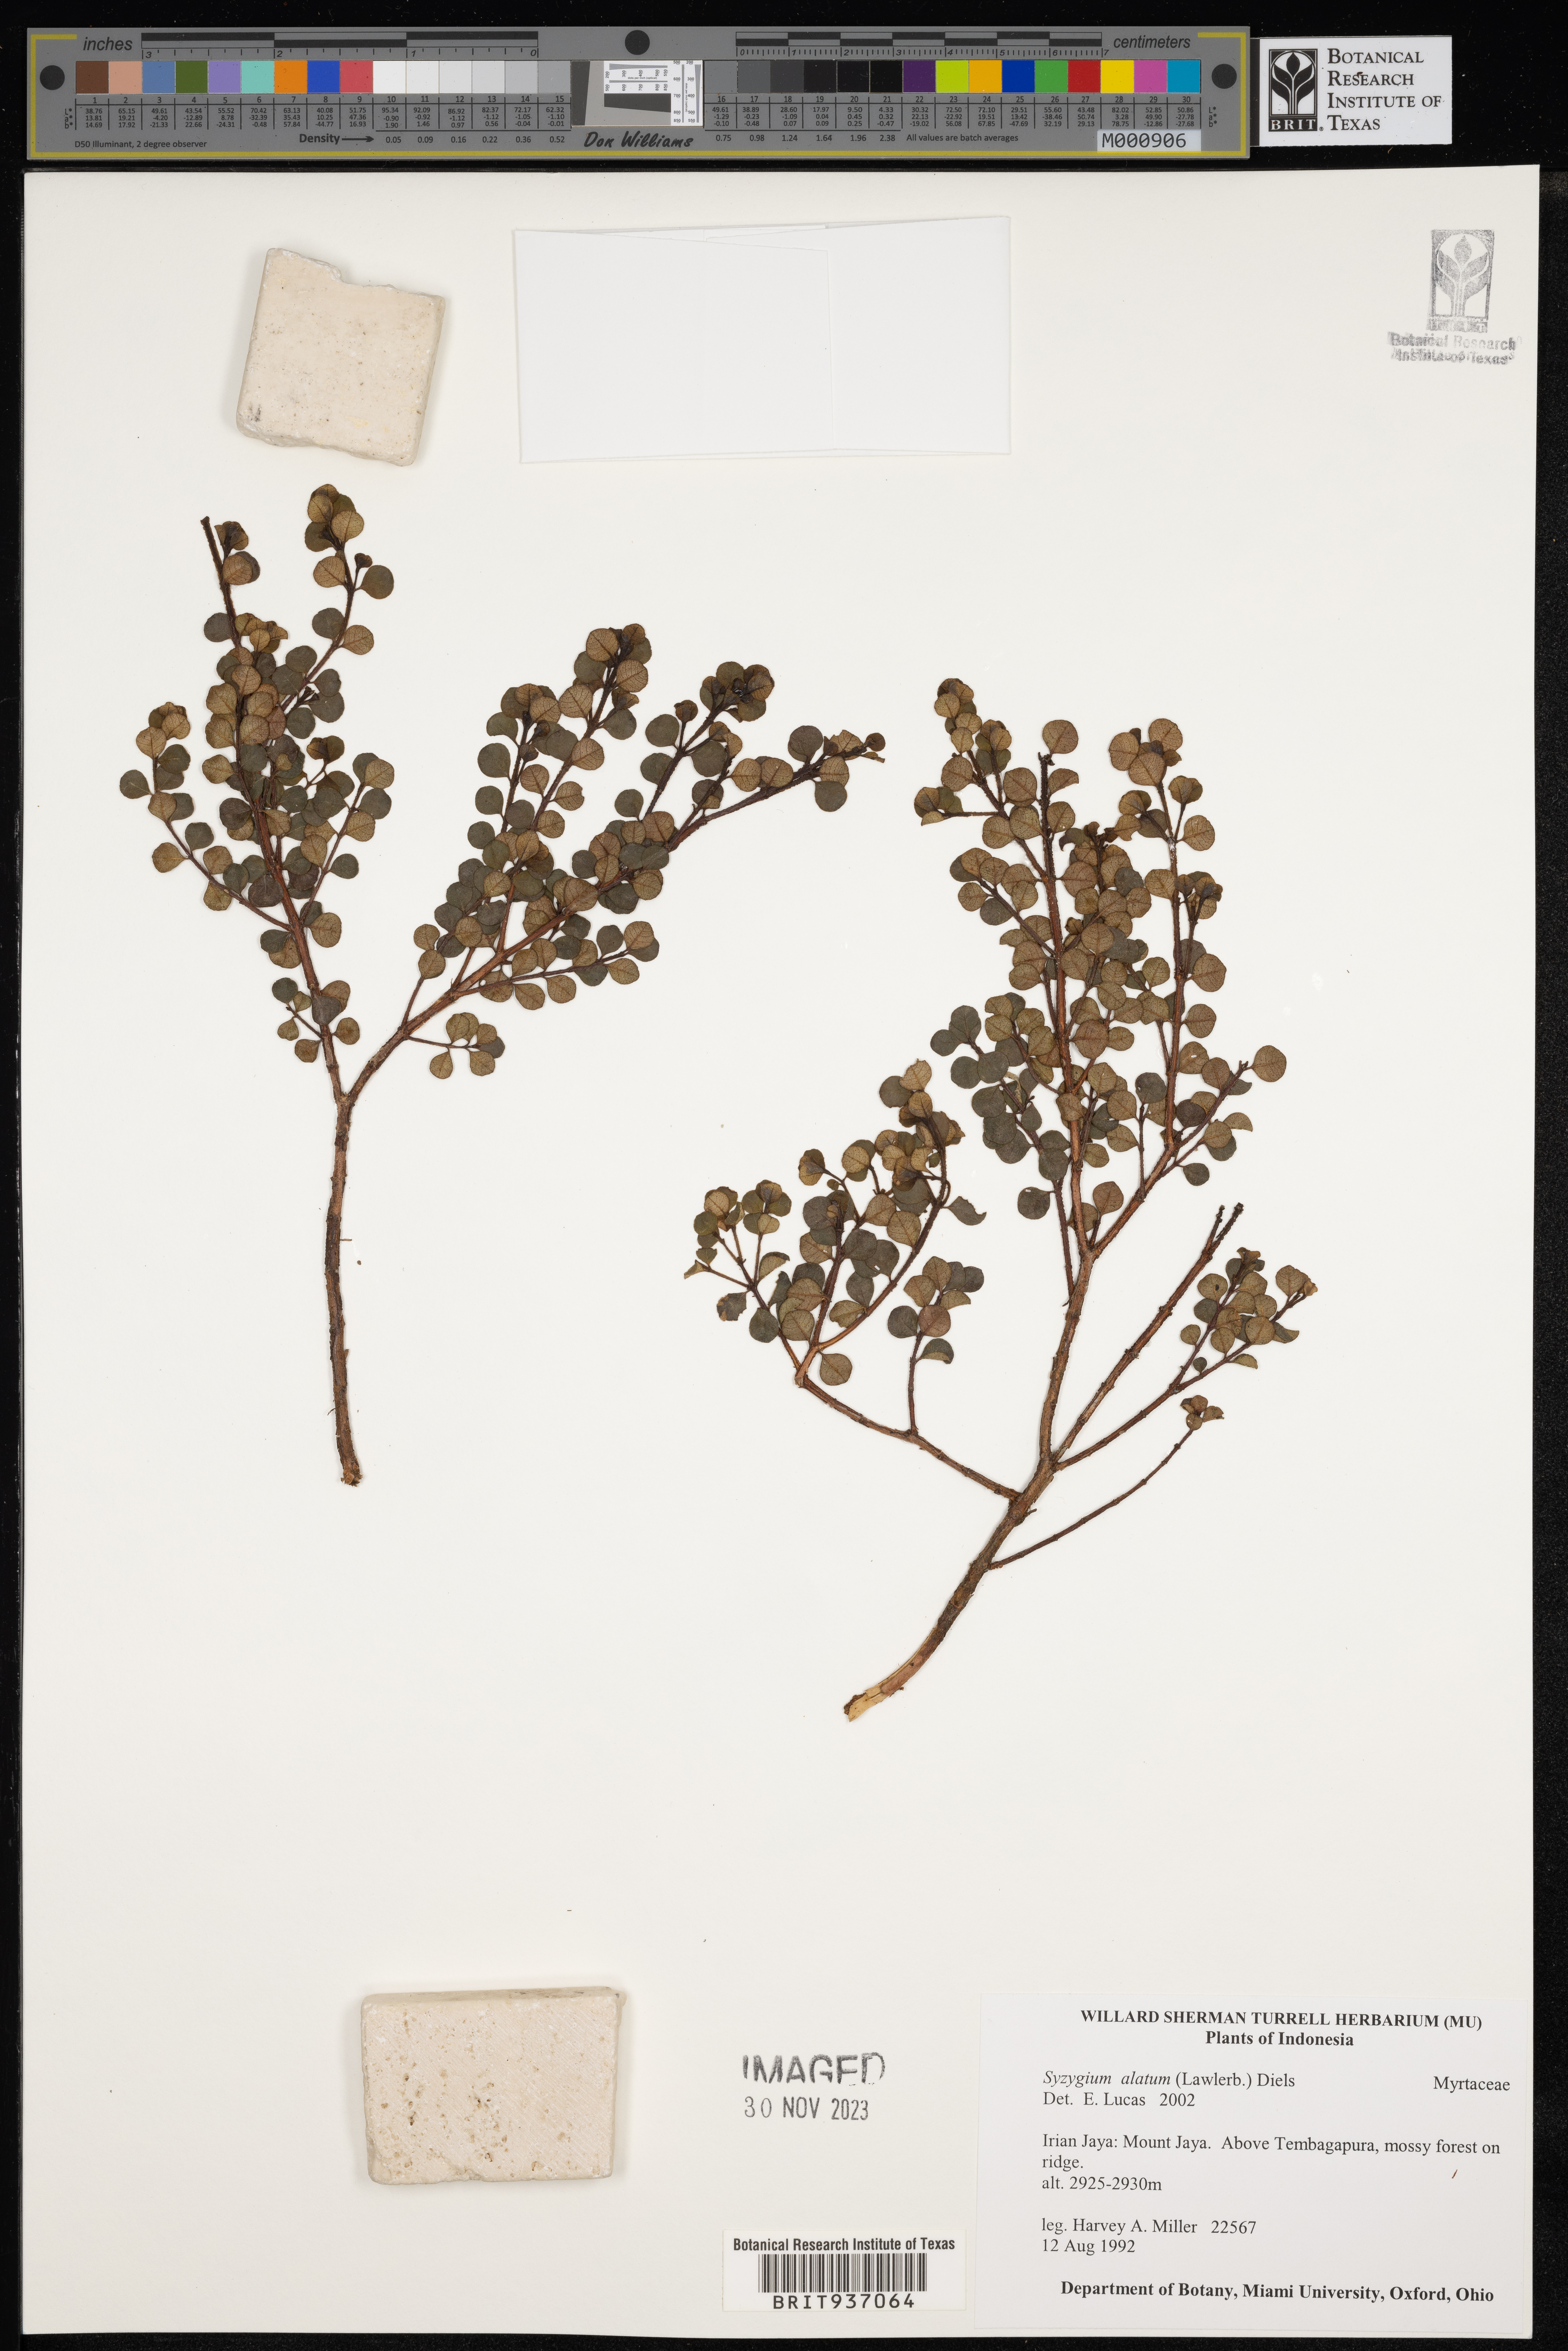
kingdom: Plantae
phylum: Tracheophyta
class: Magnoliopsida
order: Myrtales
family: Myrtaceae
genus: Syzygium
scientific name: Syzygium
